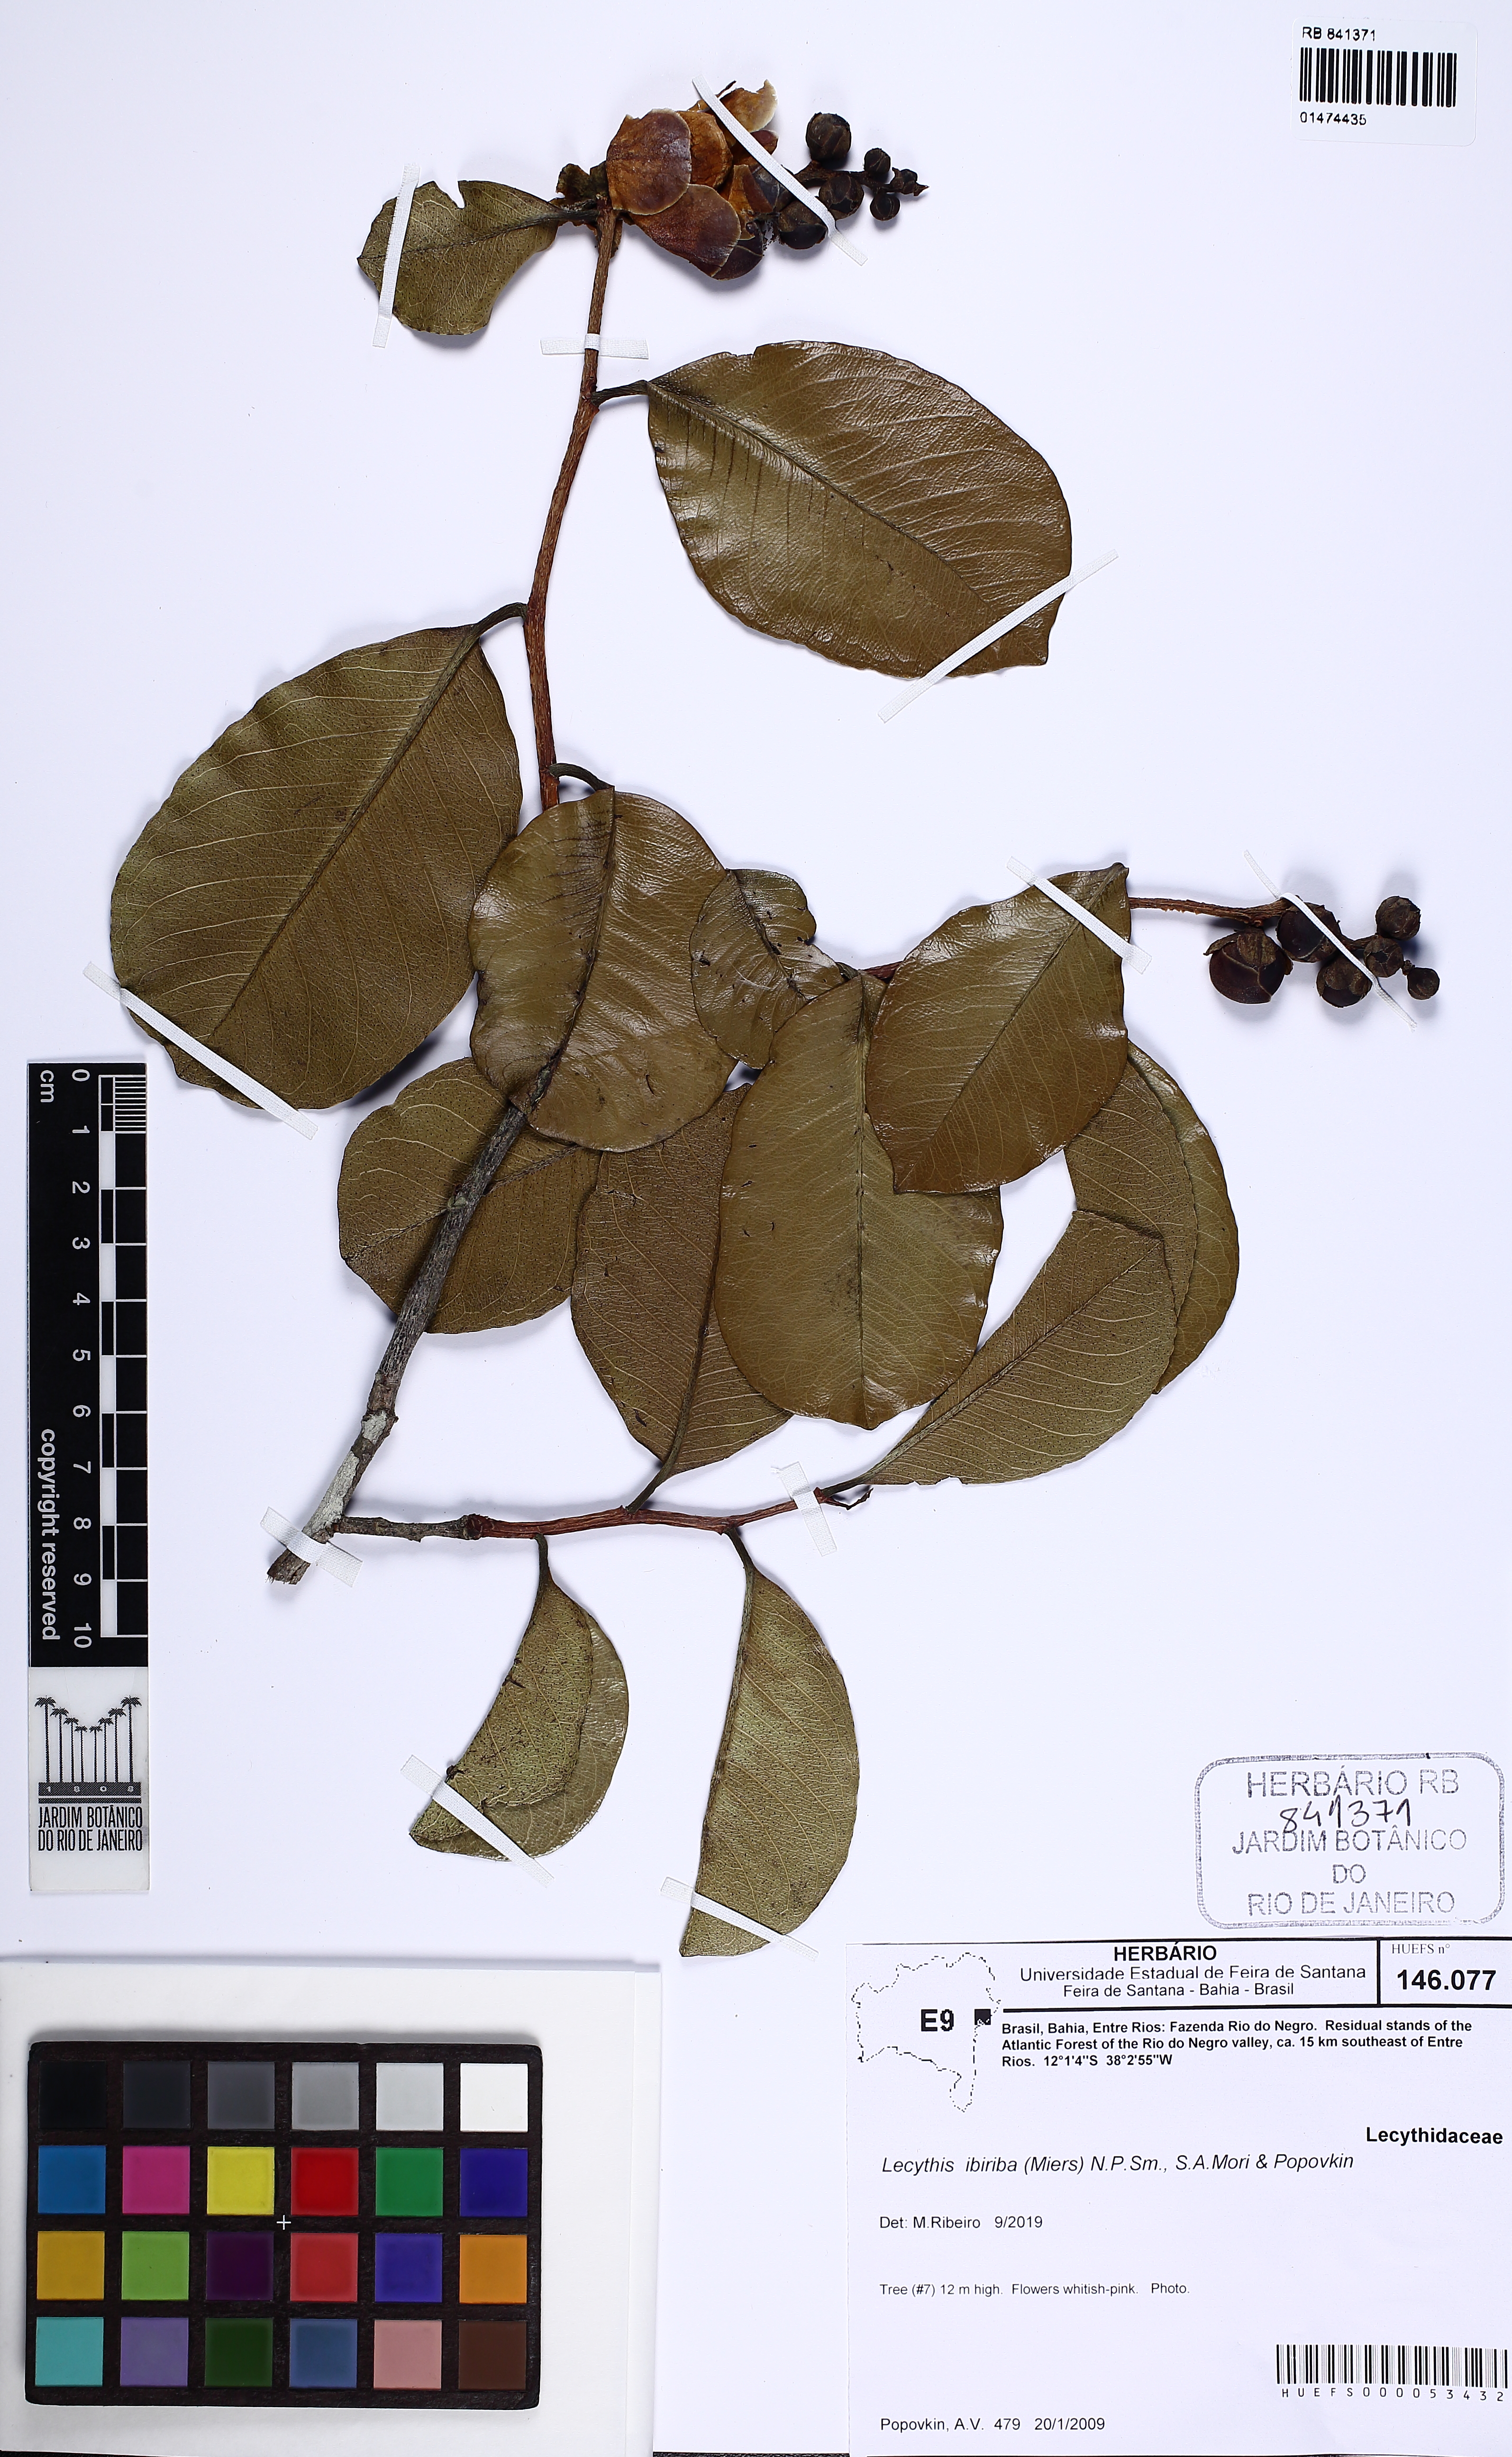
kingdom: Plantae
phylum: Tracheophyta
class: Magnoliopsida
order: Ericales
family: Lecythidaceae
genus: Lecythis
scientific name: Lecythis ibiriba
